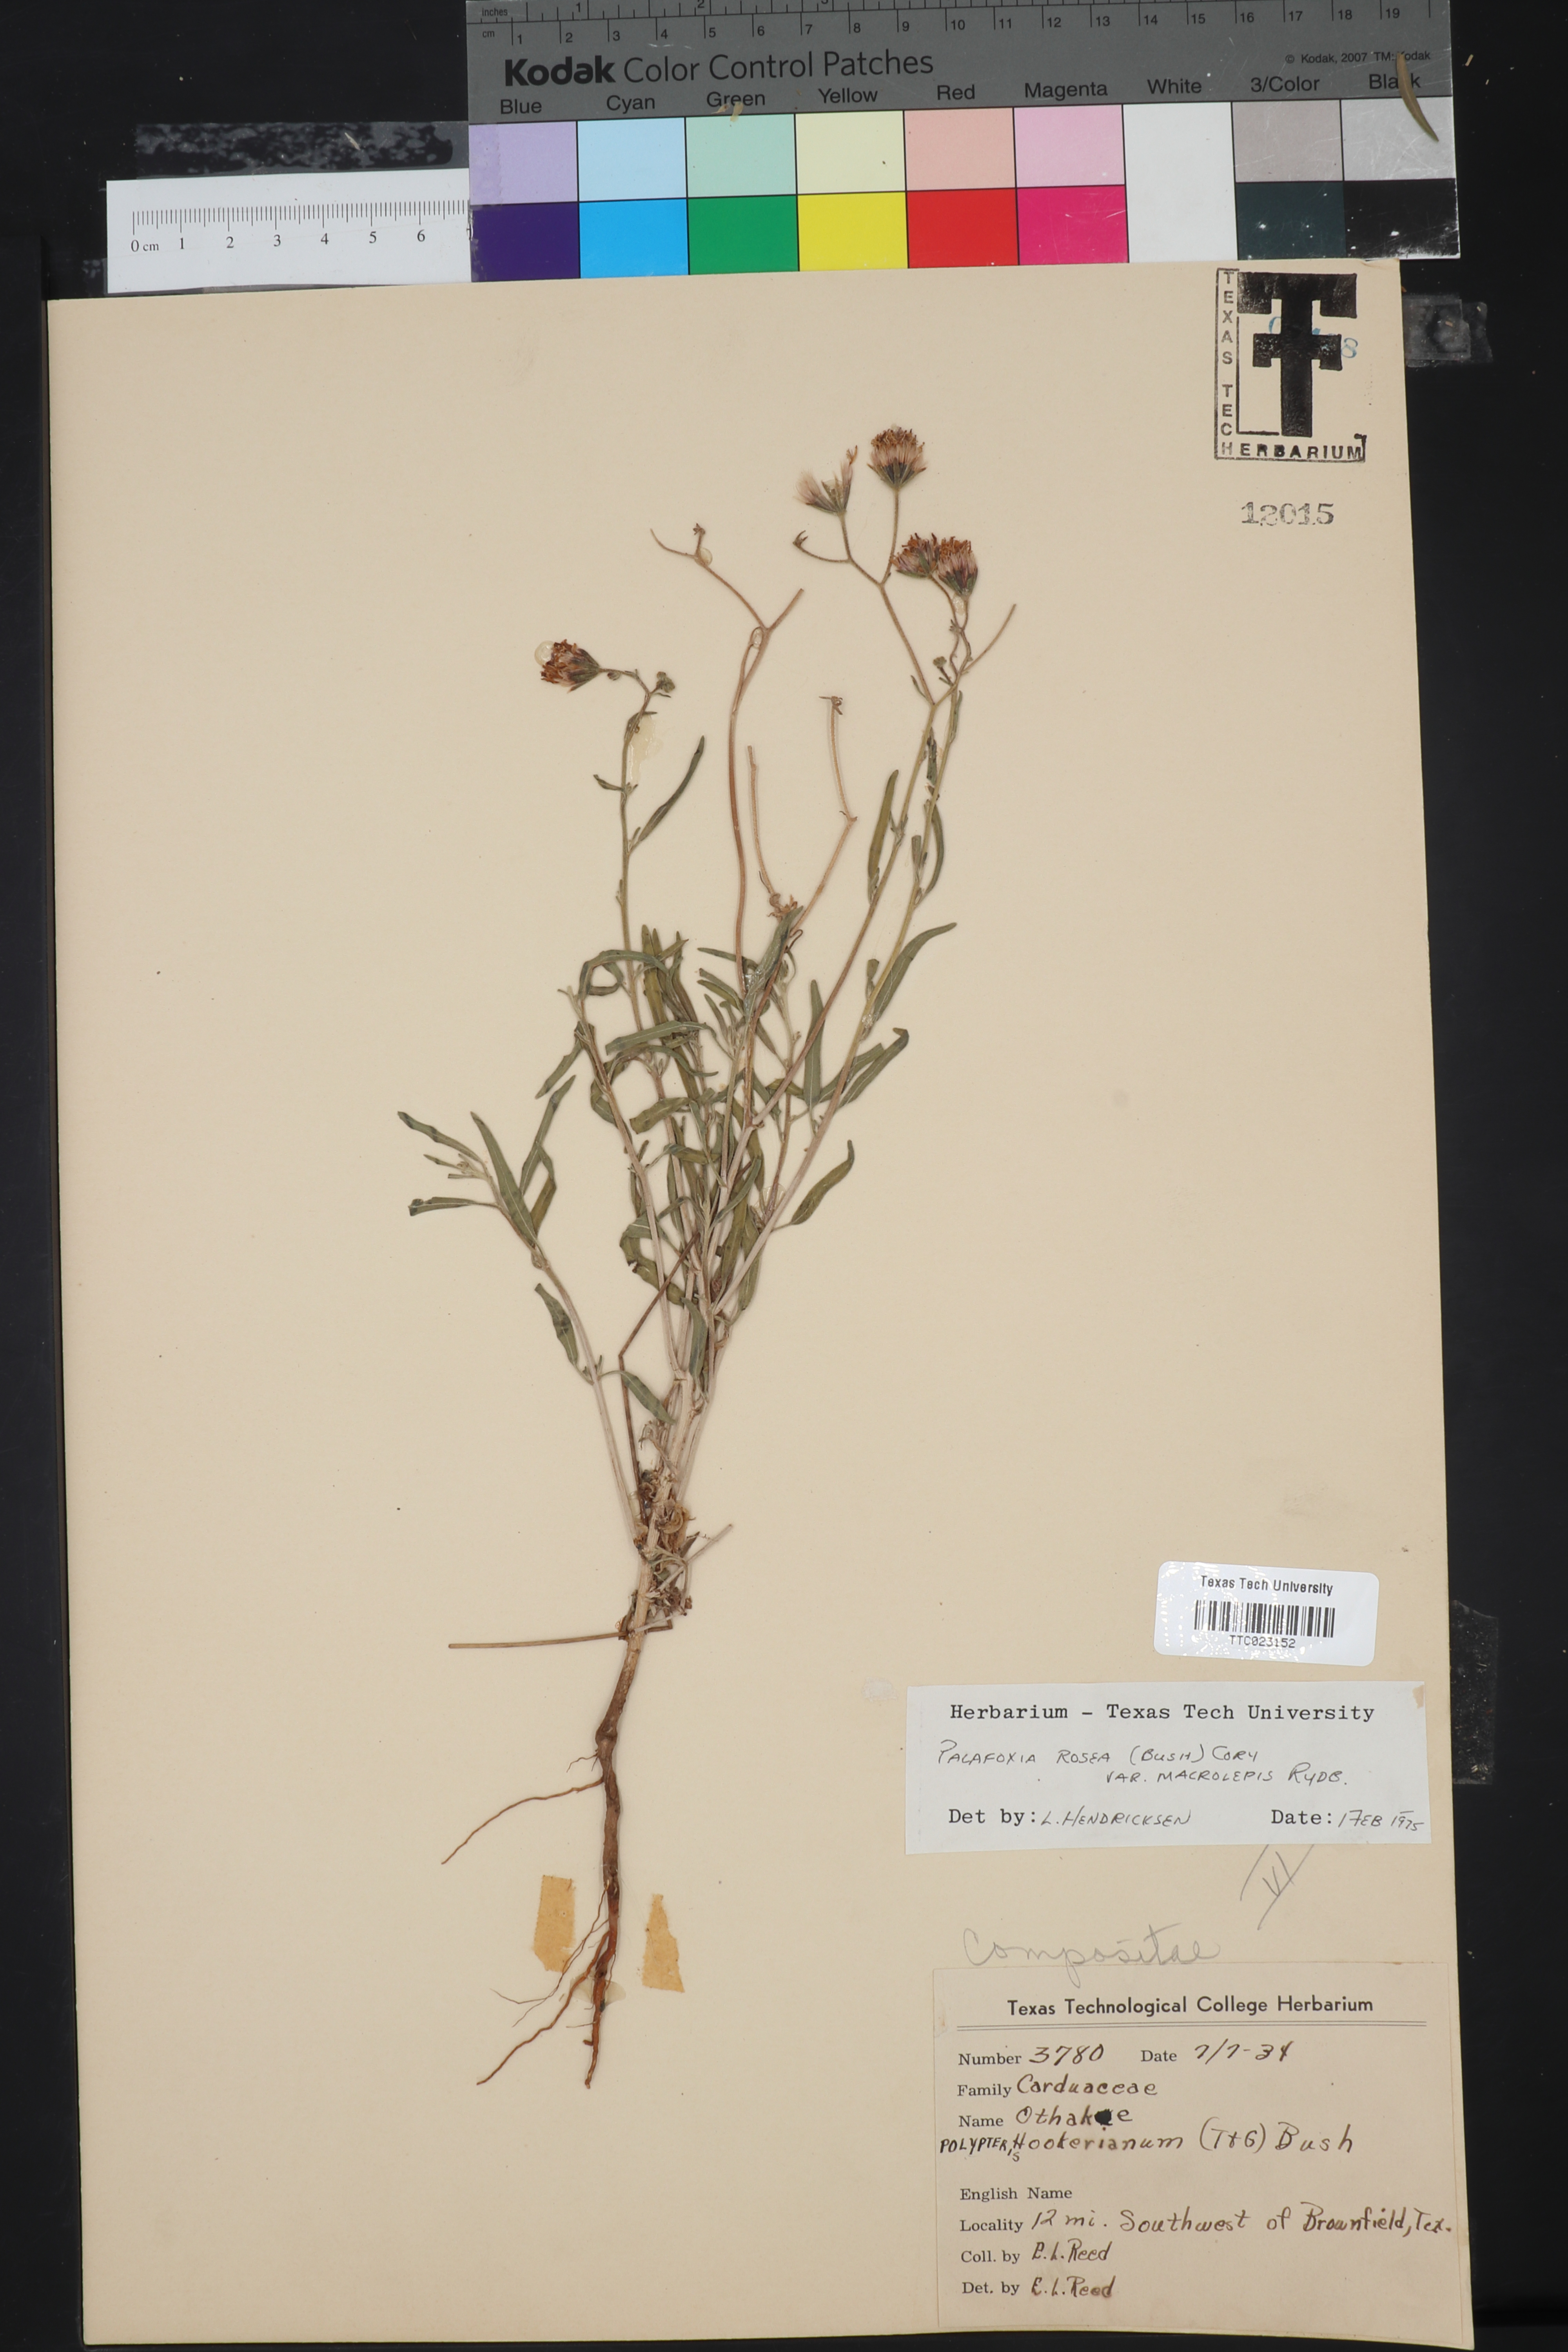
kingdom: Plantae
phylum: Tracheophyta
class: Magnoliopsida
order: Asterales
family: Asteraceae
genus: Palafoxia
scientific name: Palafoxia rosea
